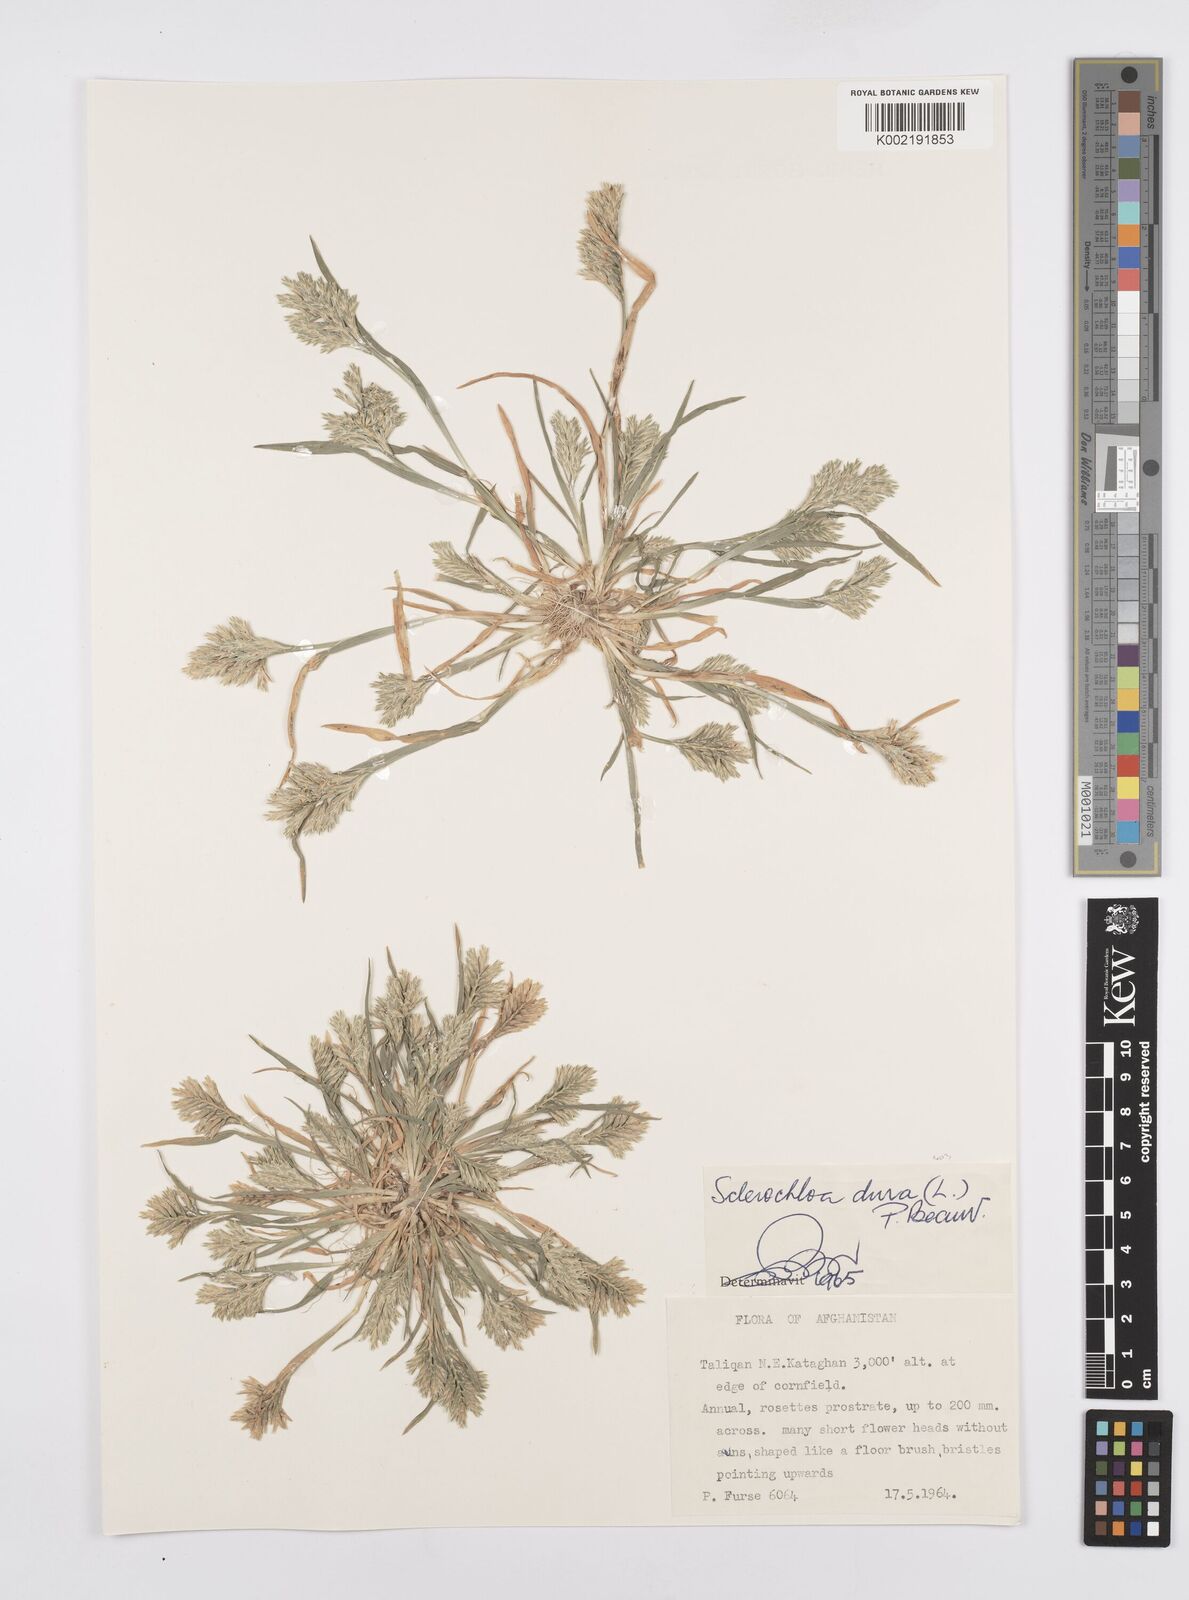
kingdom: Plantae
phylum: Tracheophyta
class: Liliopsida
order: Poales
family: Poaceae
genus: Sclerochloa
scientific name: Sclerochloa dura
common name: Common hardgrass
